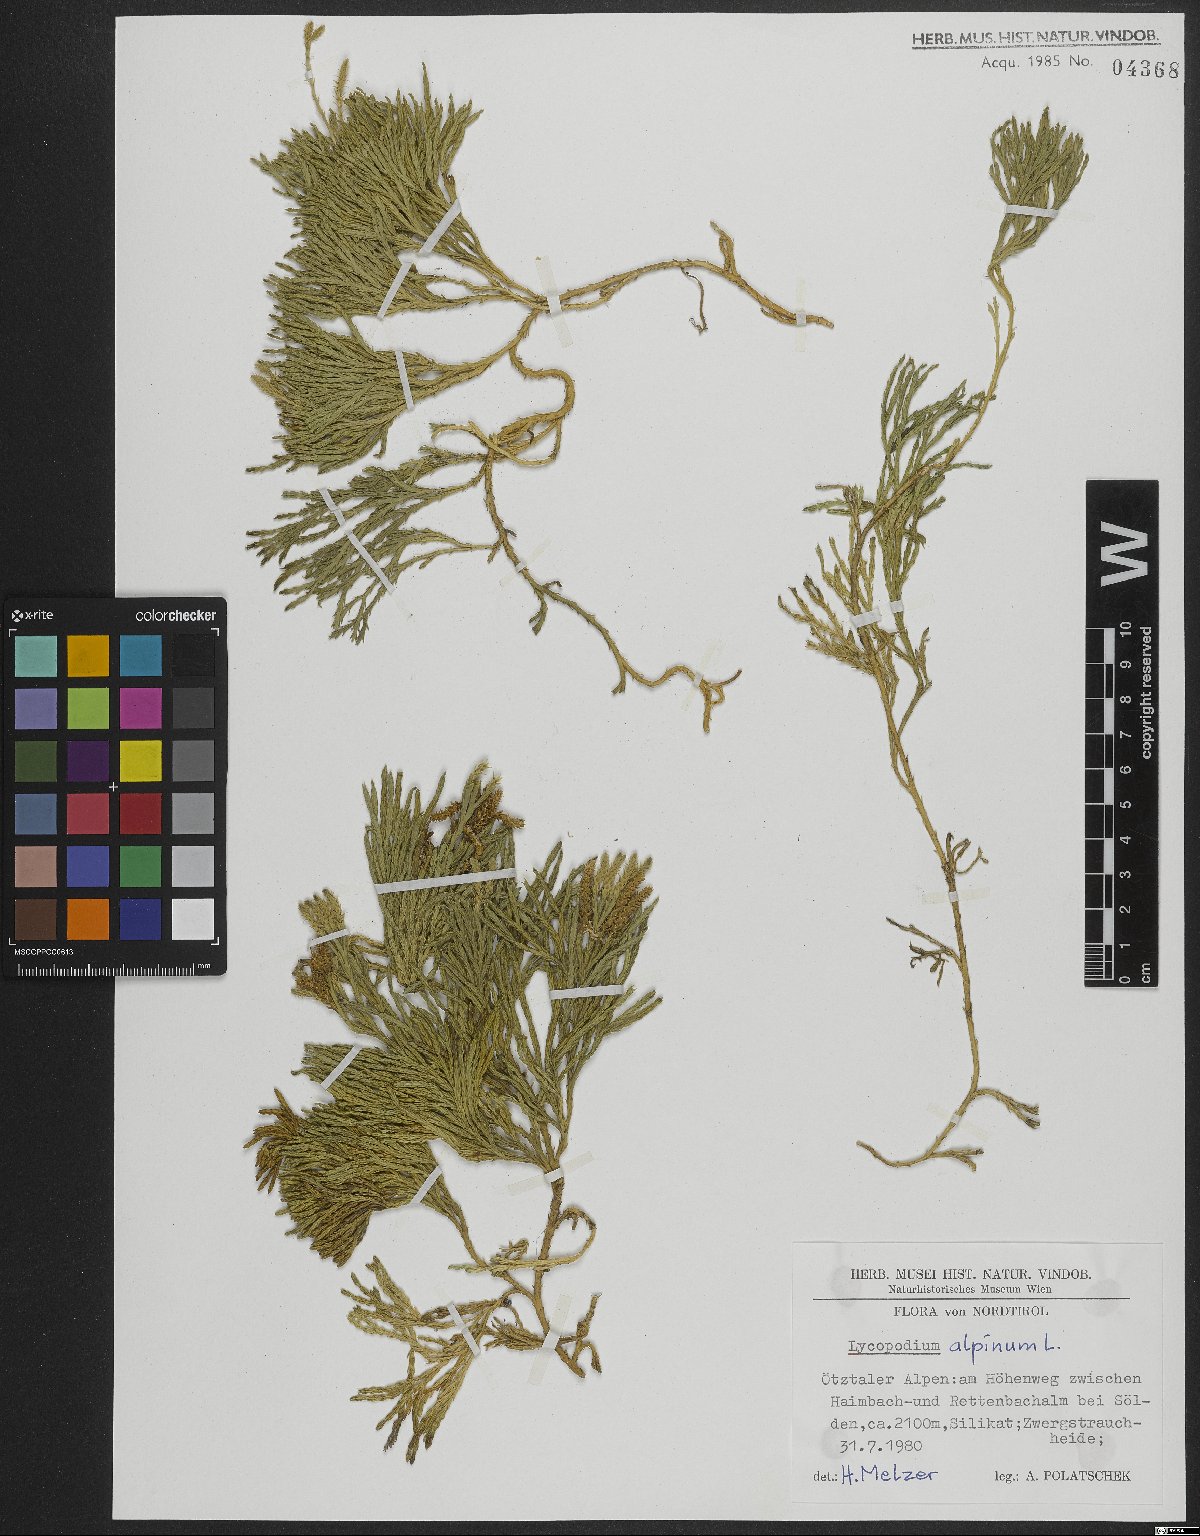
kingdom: Plantae
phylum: Tracheophyta
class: Lycopodiopsida
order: Lycopodiales
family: Lycopodiaceae
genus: Diphasiastrum
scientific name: Diphasiastrum alpinum
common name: Alpine clubmoss
